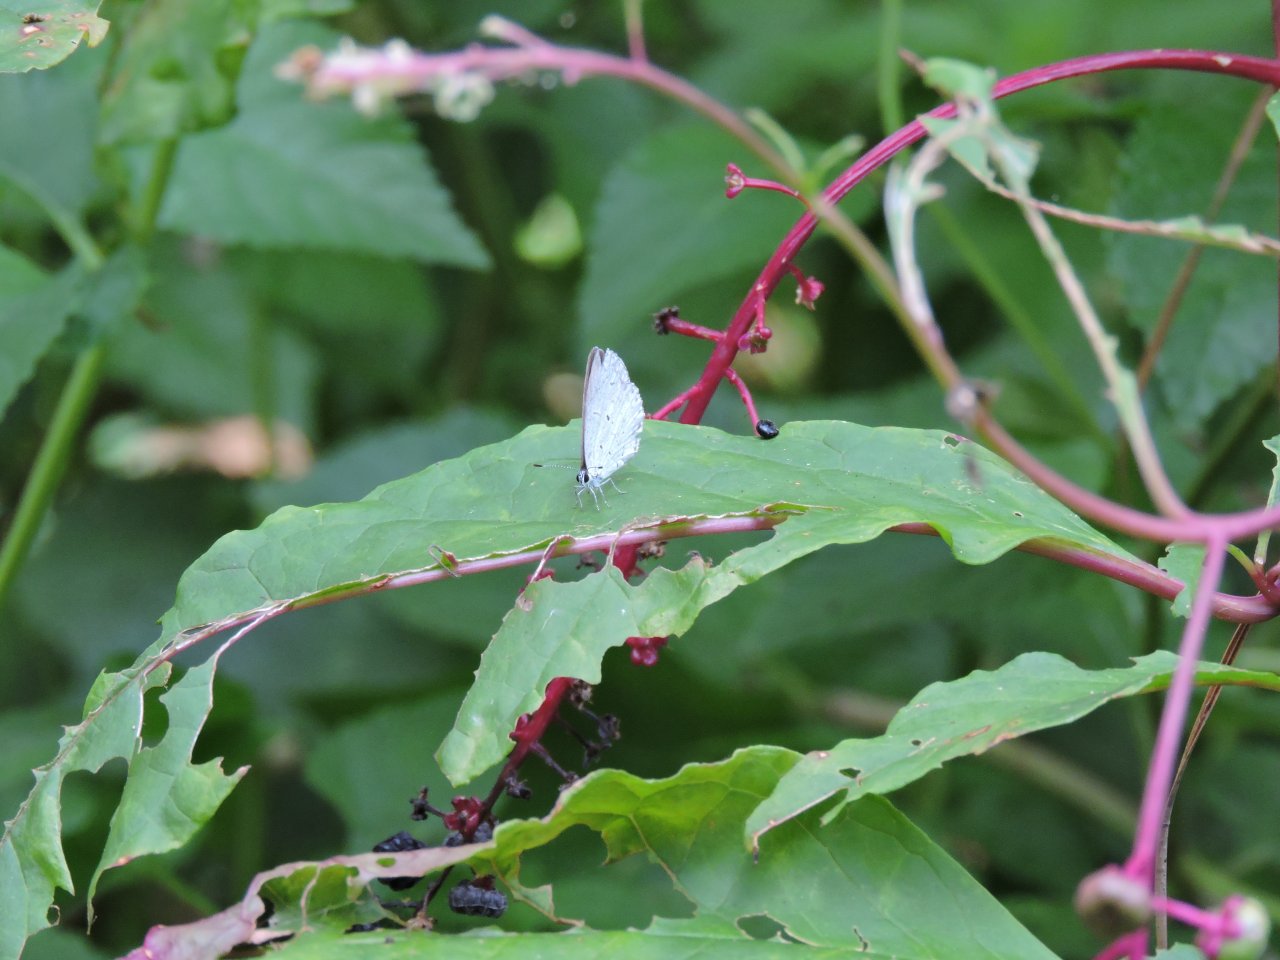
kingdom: Animalia
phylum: Arthropoda
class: Insecta
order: Lepidoptera
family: Lycaenidae
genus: Cyaniris
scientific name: Cyaniris neglecta
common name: Summer Azure
